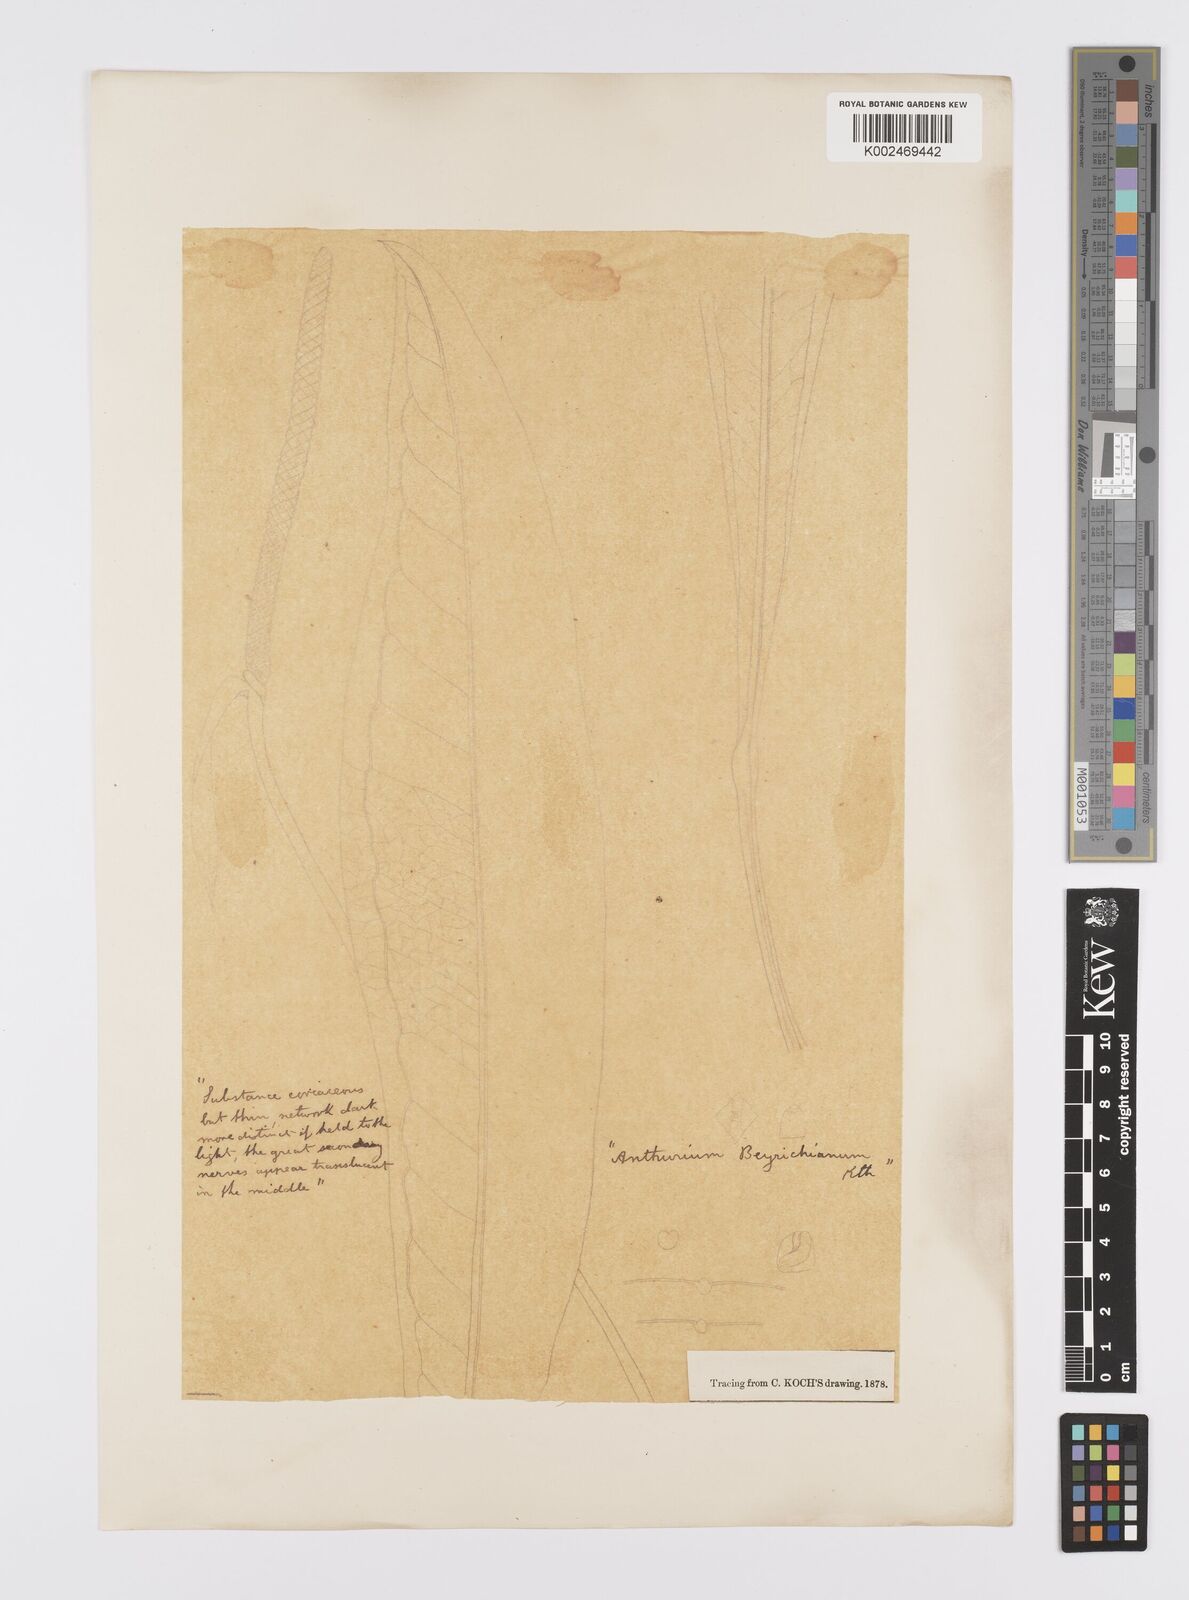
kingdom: Plantae
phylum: Tracheophyta
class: Liliopsida
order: Alismatales
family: Araceae
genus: Anthurium
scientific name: Anthurium intermedium
